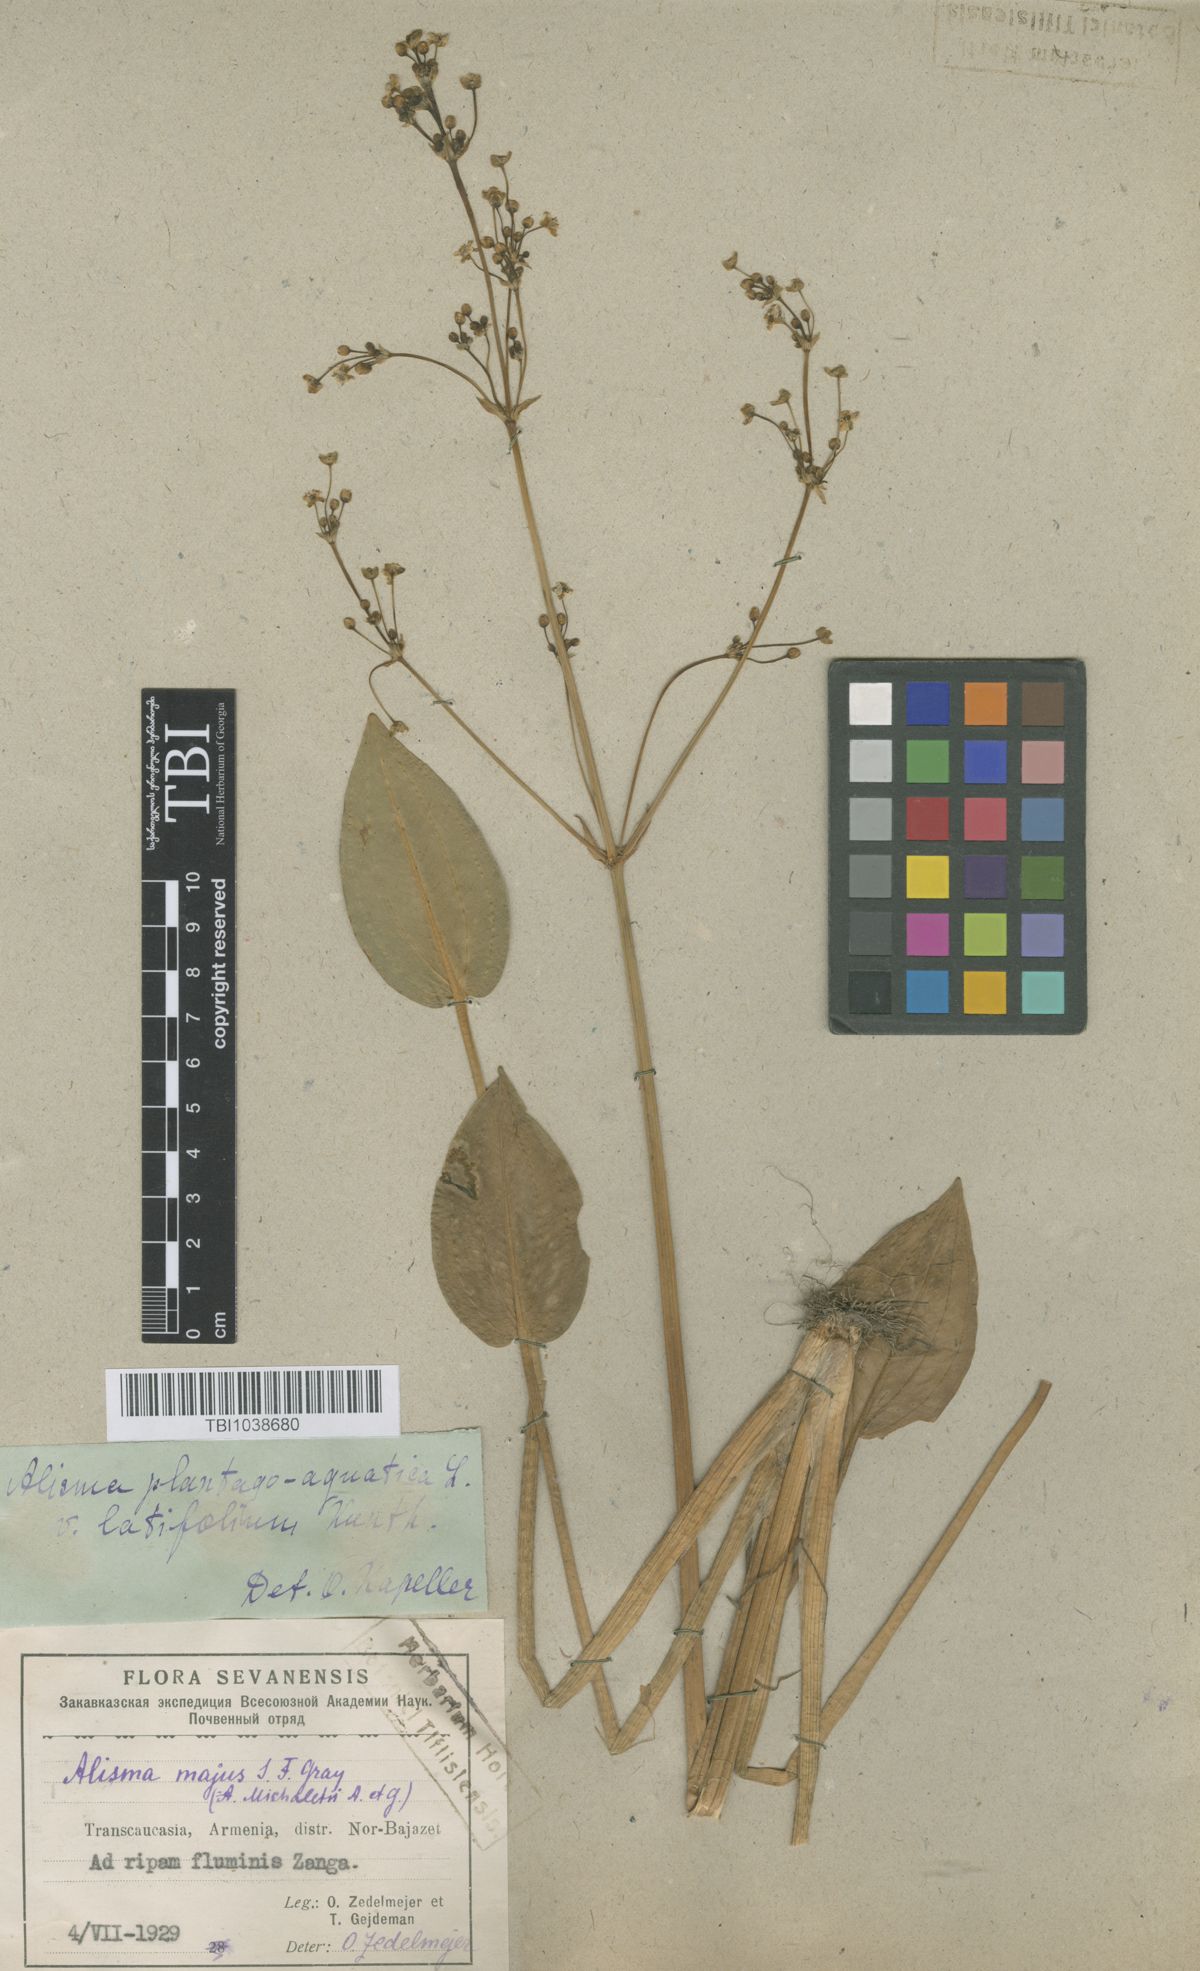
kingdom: Plantae
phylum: Tracheophyta
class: Liliopsida
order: Alismatales
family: Alismataceae
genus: Alisma
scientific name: Alisma plantago-aquatica
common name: Water-plantain
